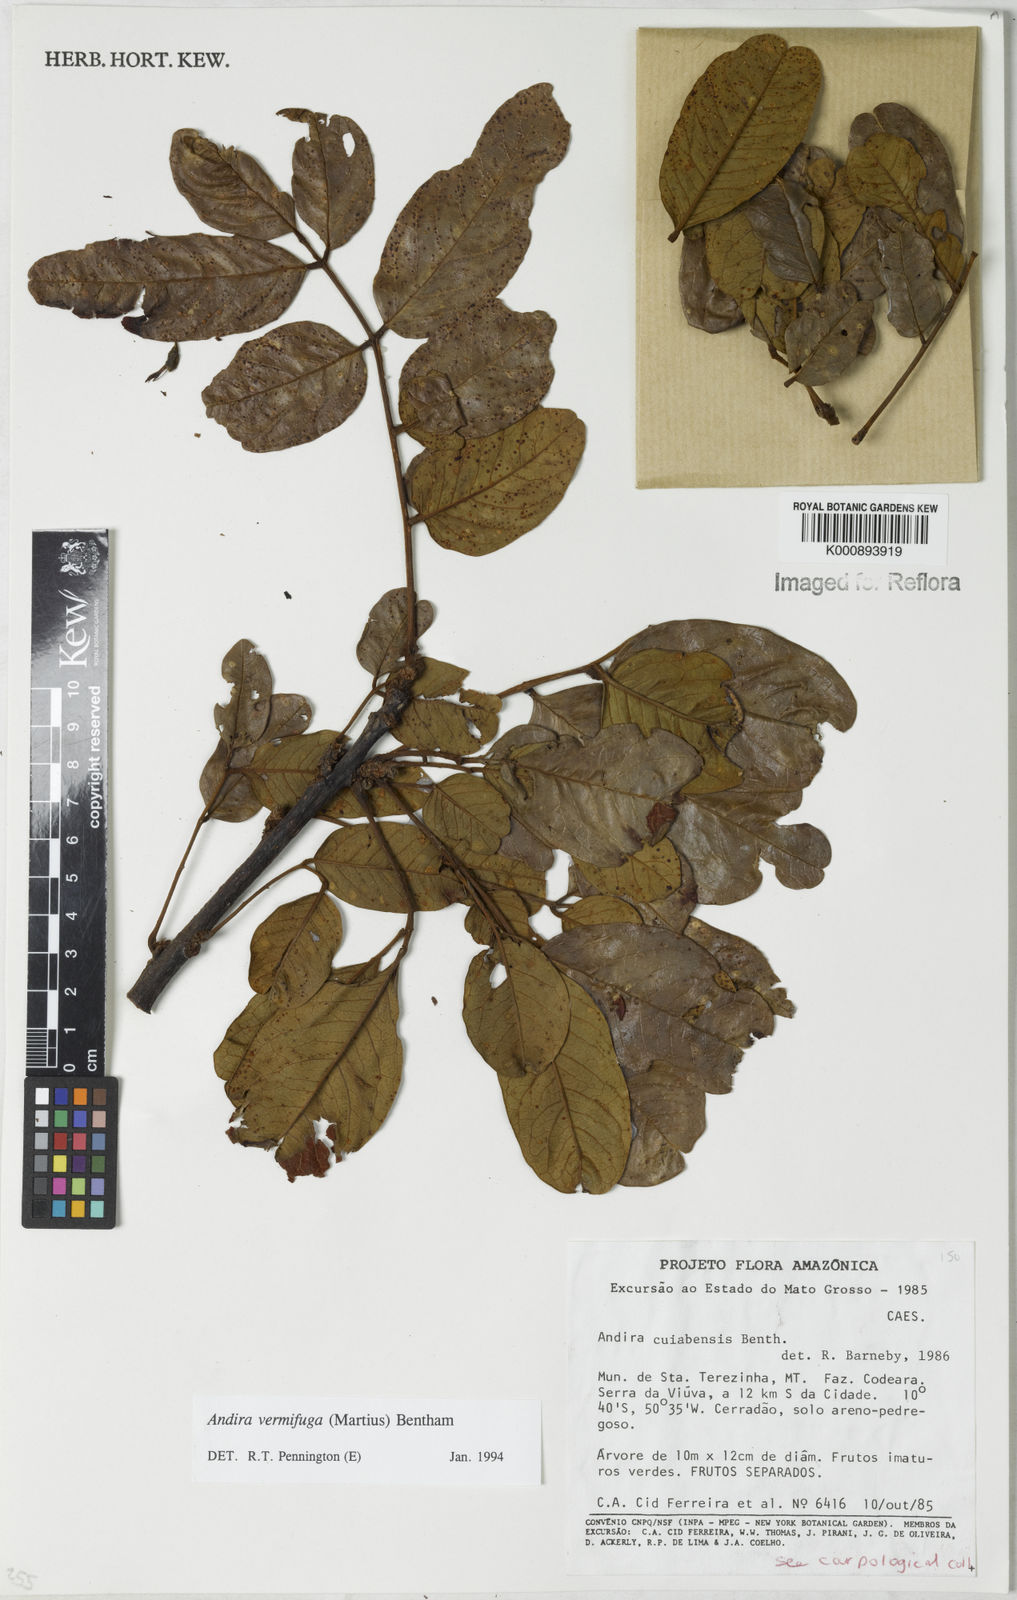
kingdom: Plantae
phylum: Tracheophyta
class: Magnoliopsida
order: Fabales
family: Fabaceae
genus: Andira
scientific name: Andira vermifuga
